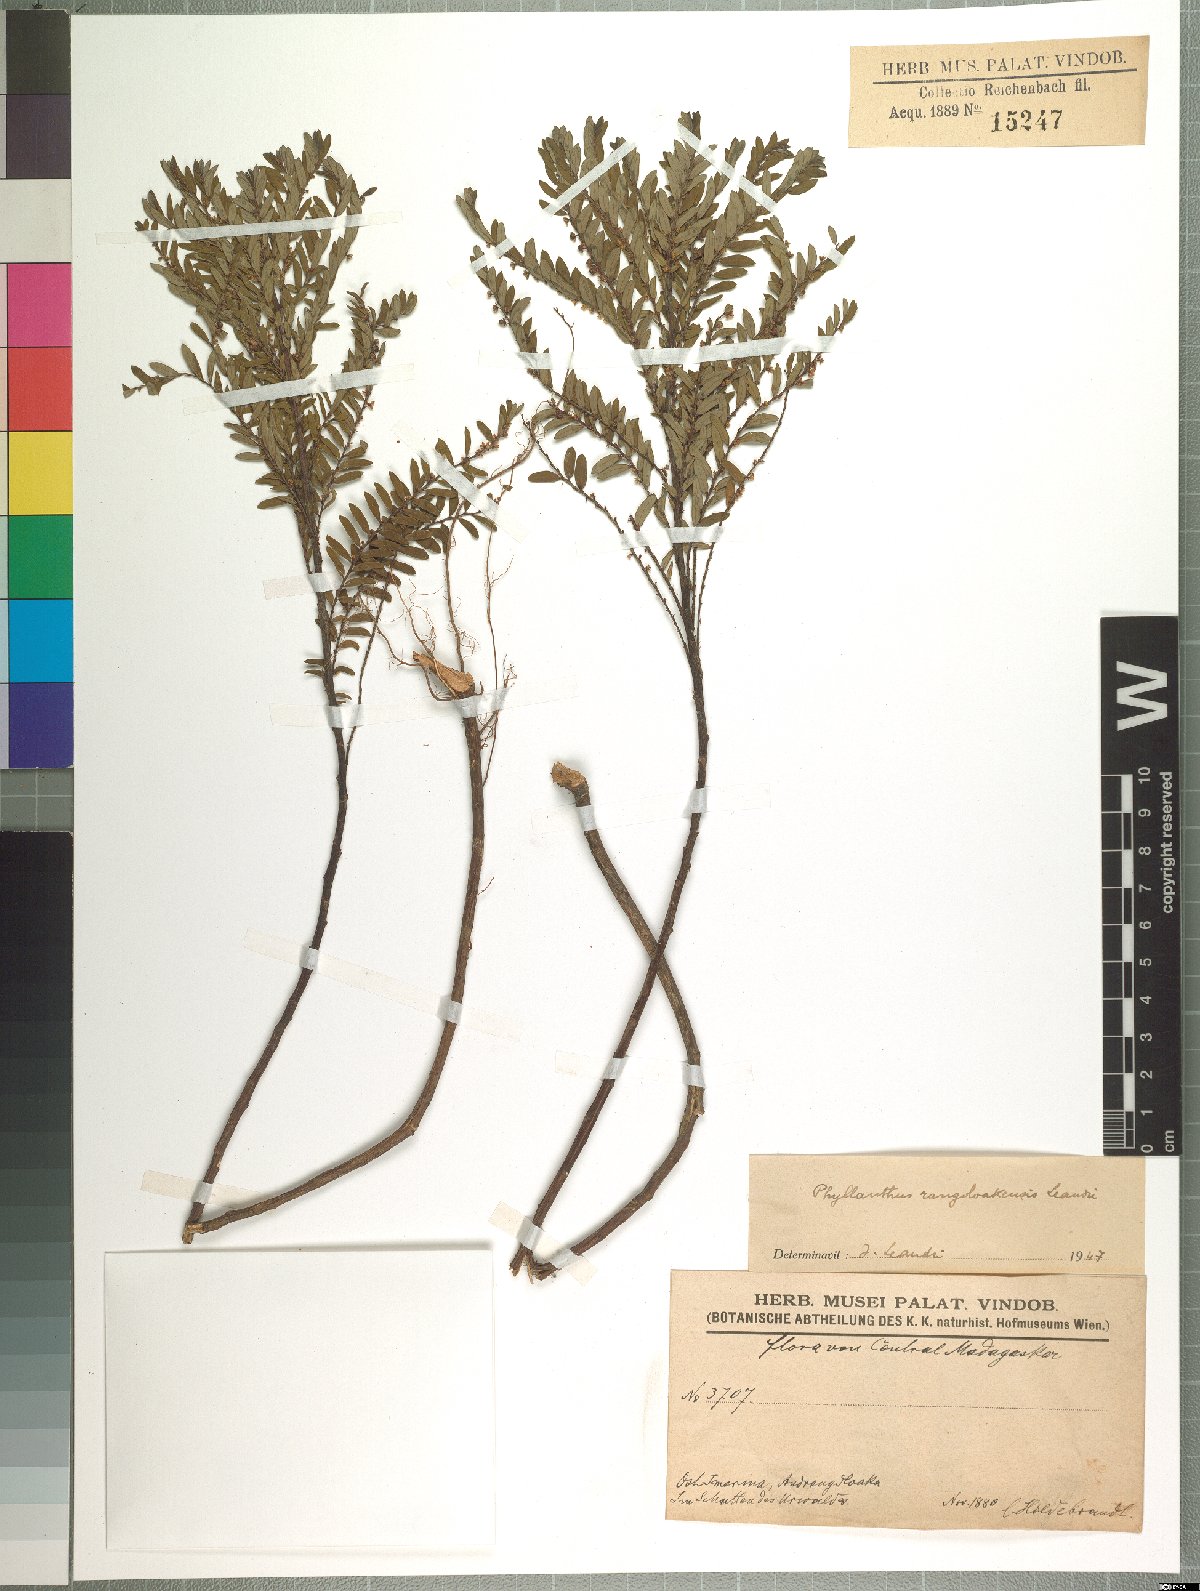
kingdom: Plantae
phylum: Tracheophyta
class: Magnoliopsida
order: Malpighiales
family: Phyllanthaceae
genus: Phyllanthus
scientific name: Phyllanthus rangoloakensis
